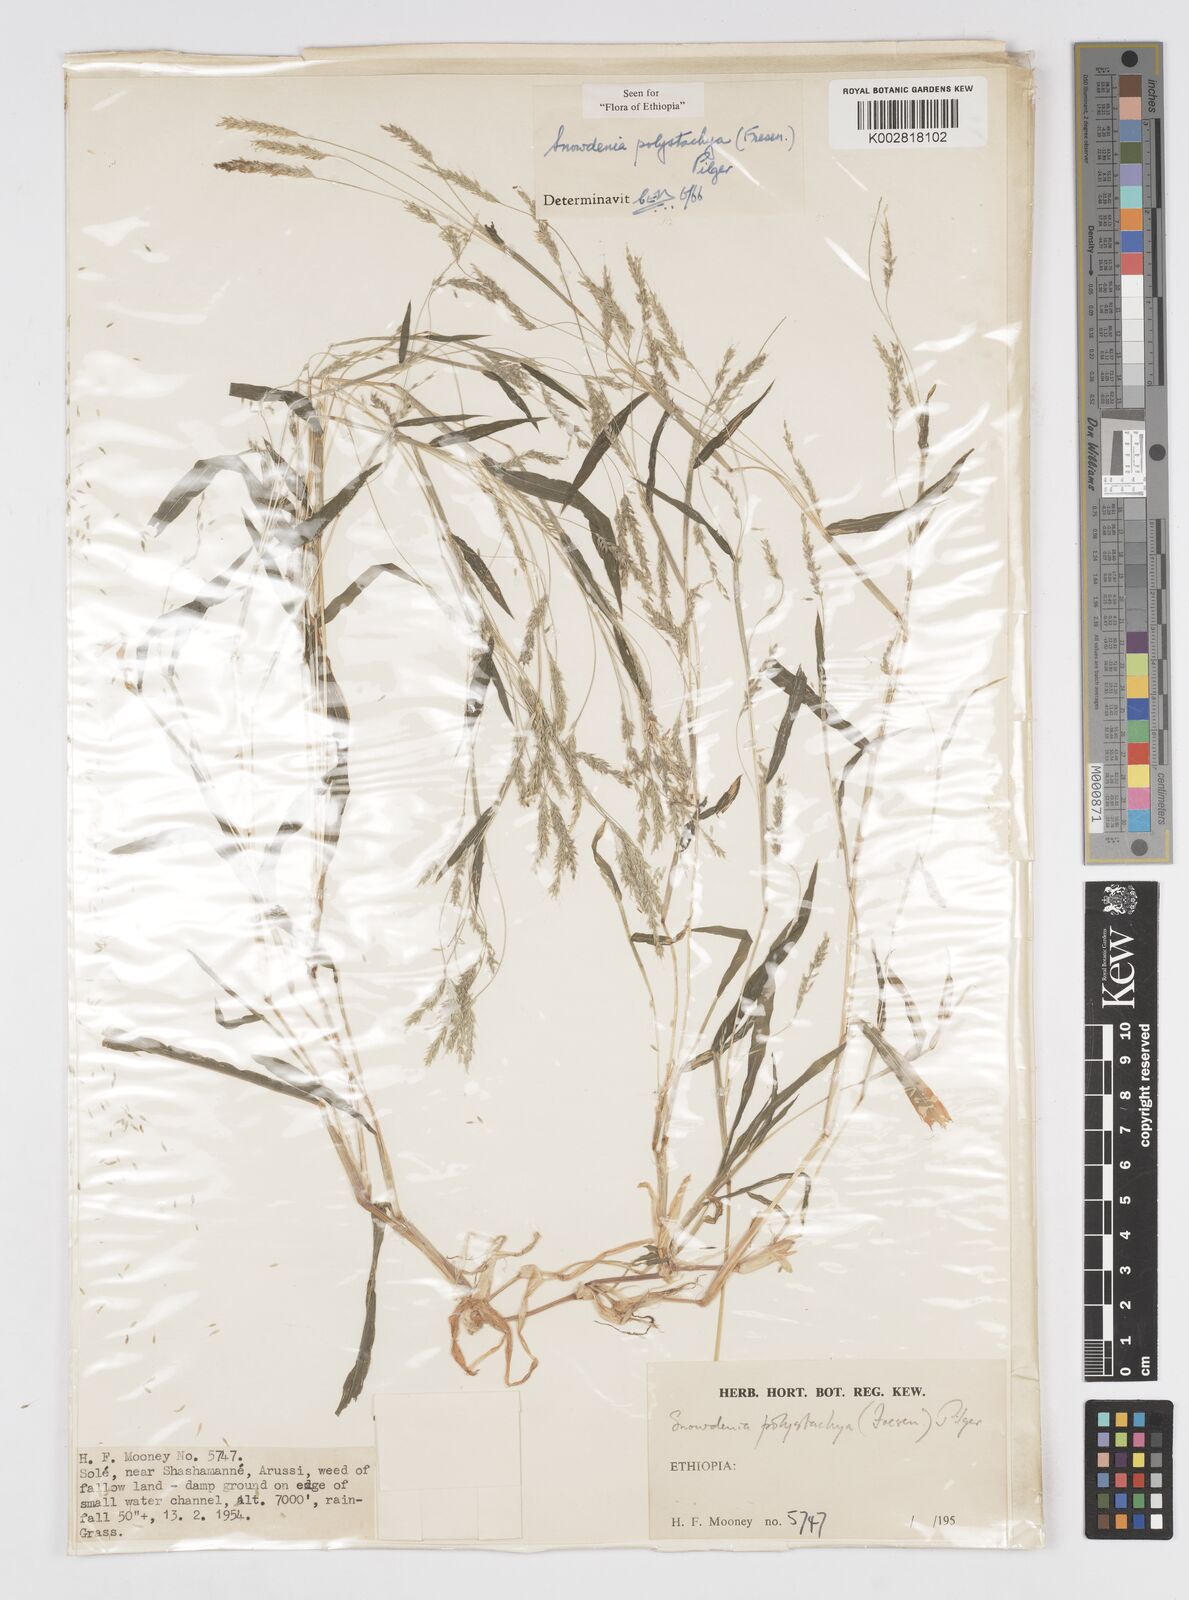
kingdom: Plantae
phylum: Tracheophyta
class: Liliopsida
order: Poales
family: Poaceae
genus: Snowdenia
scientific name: Snowdenia polystachya
